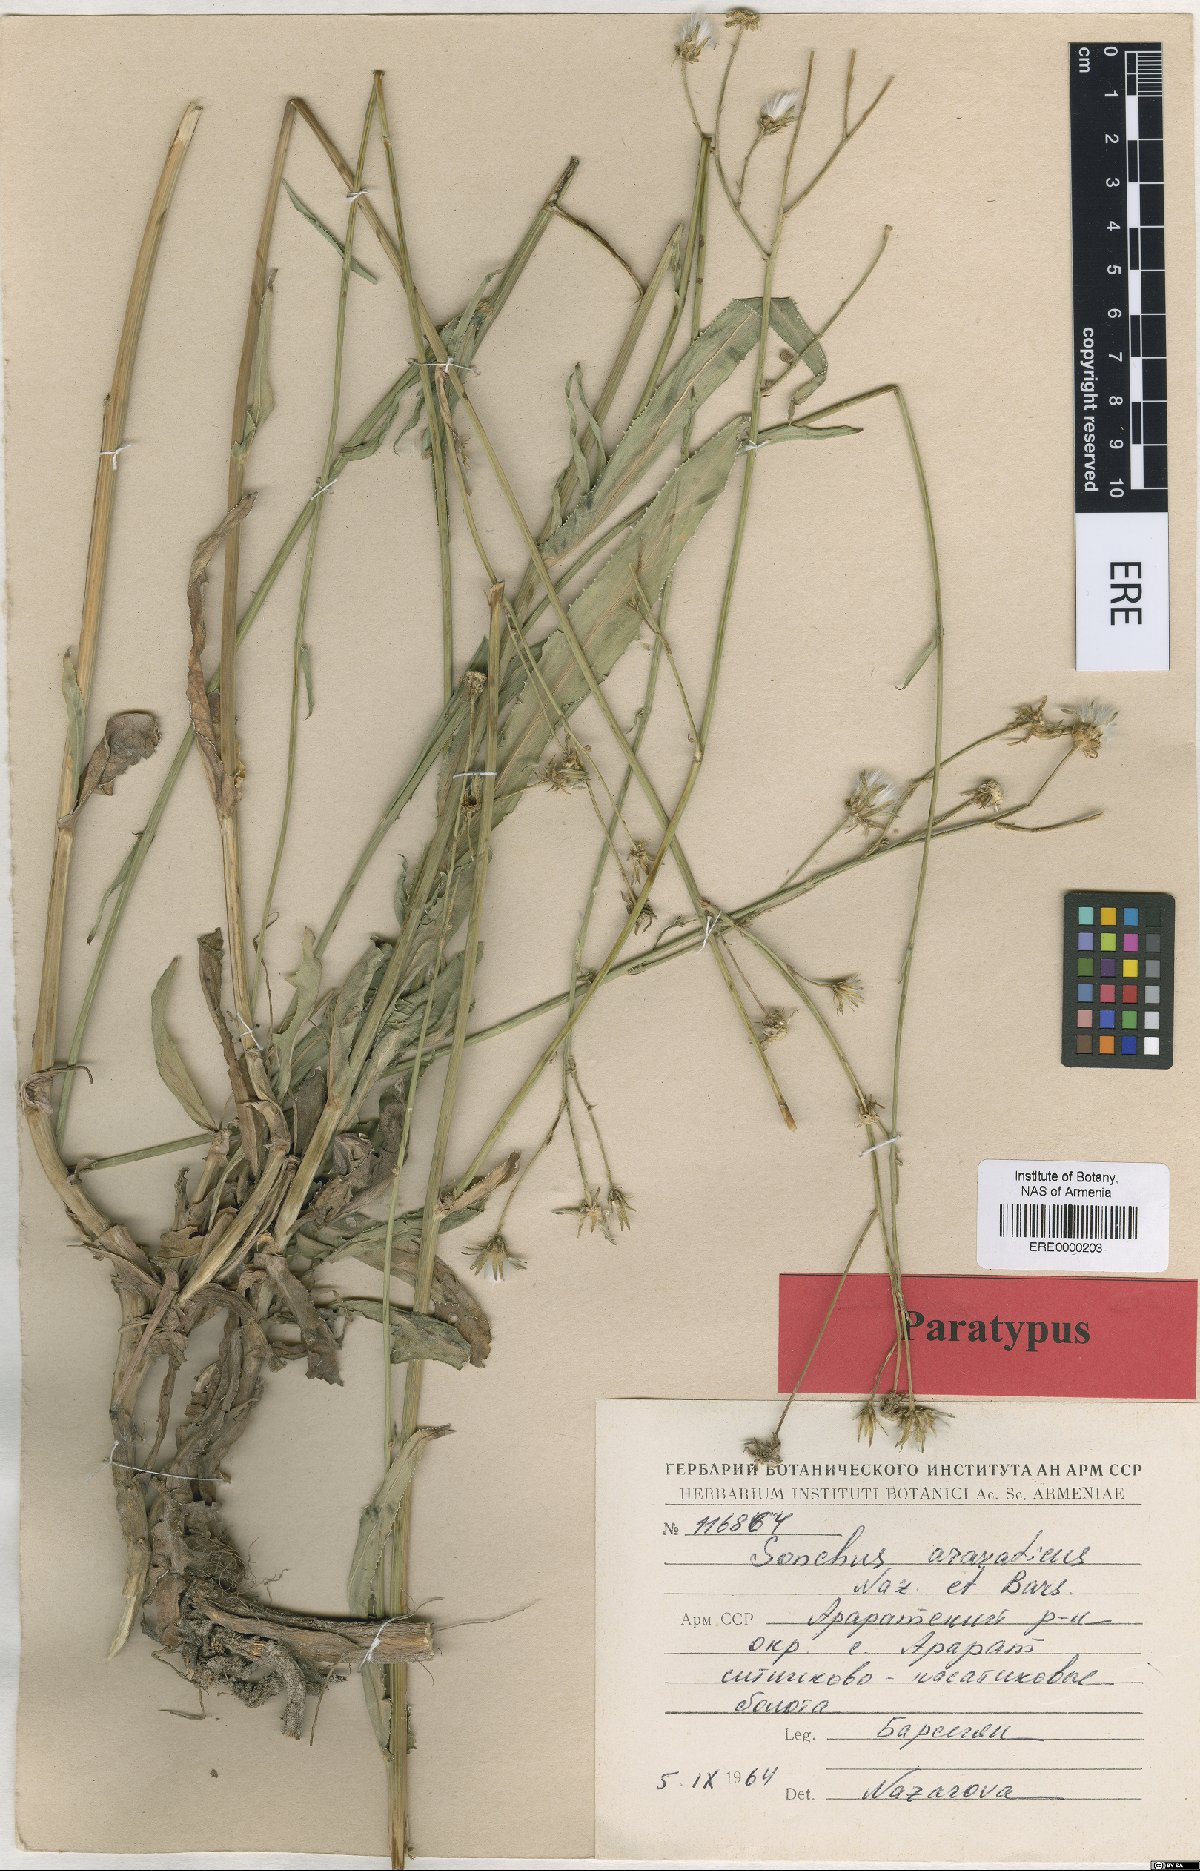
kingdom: Plantae
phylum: Tracheophyta
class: Magnoliopsida
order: Asterales
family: Asteraceae
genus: Sonchus
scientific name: Sonchus araraticus
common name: Araratian sow-thistle
